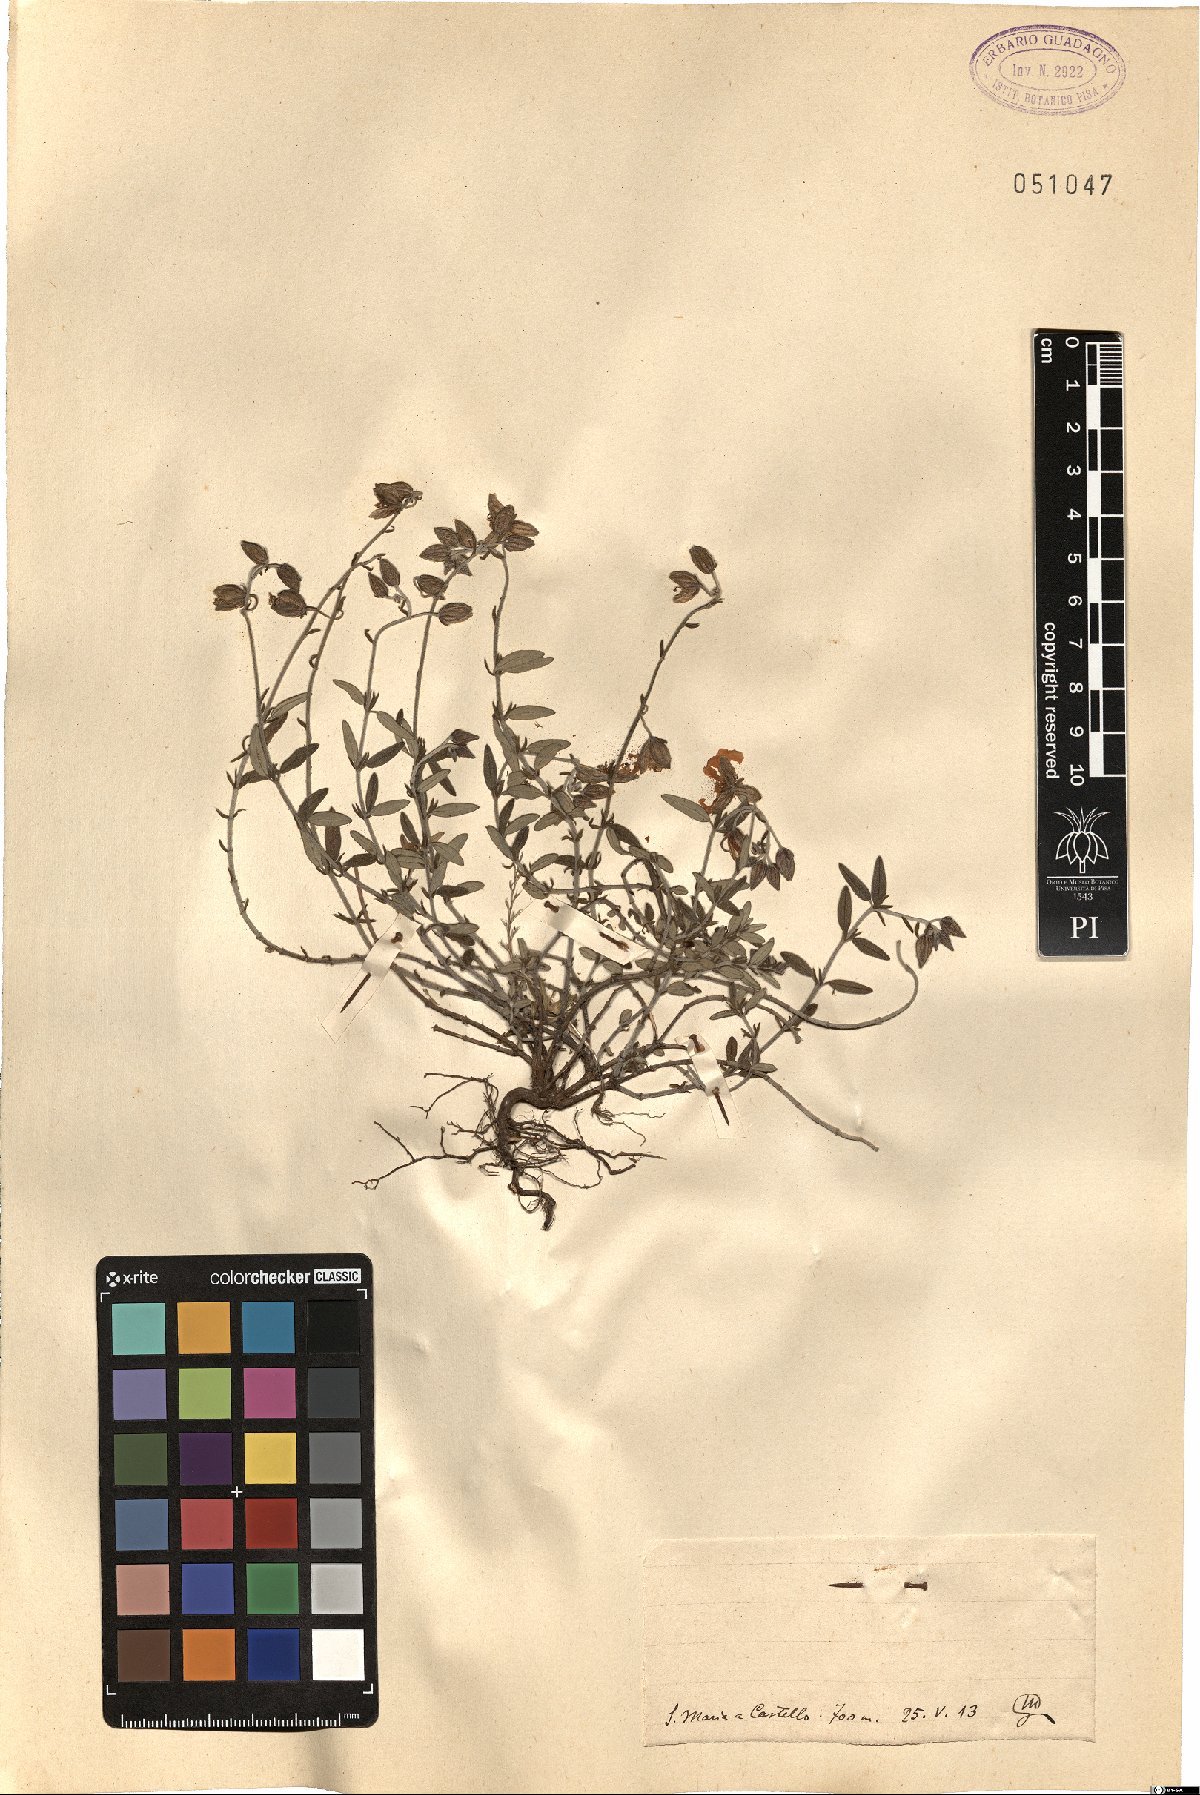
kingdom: Plantae
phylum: Tracheophyta
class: Magnoliopsida
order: Malvales
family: Cistaceae
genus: Helianthemum
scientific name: Helianthemum
